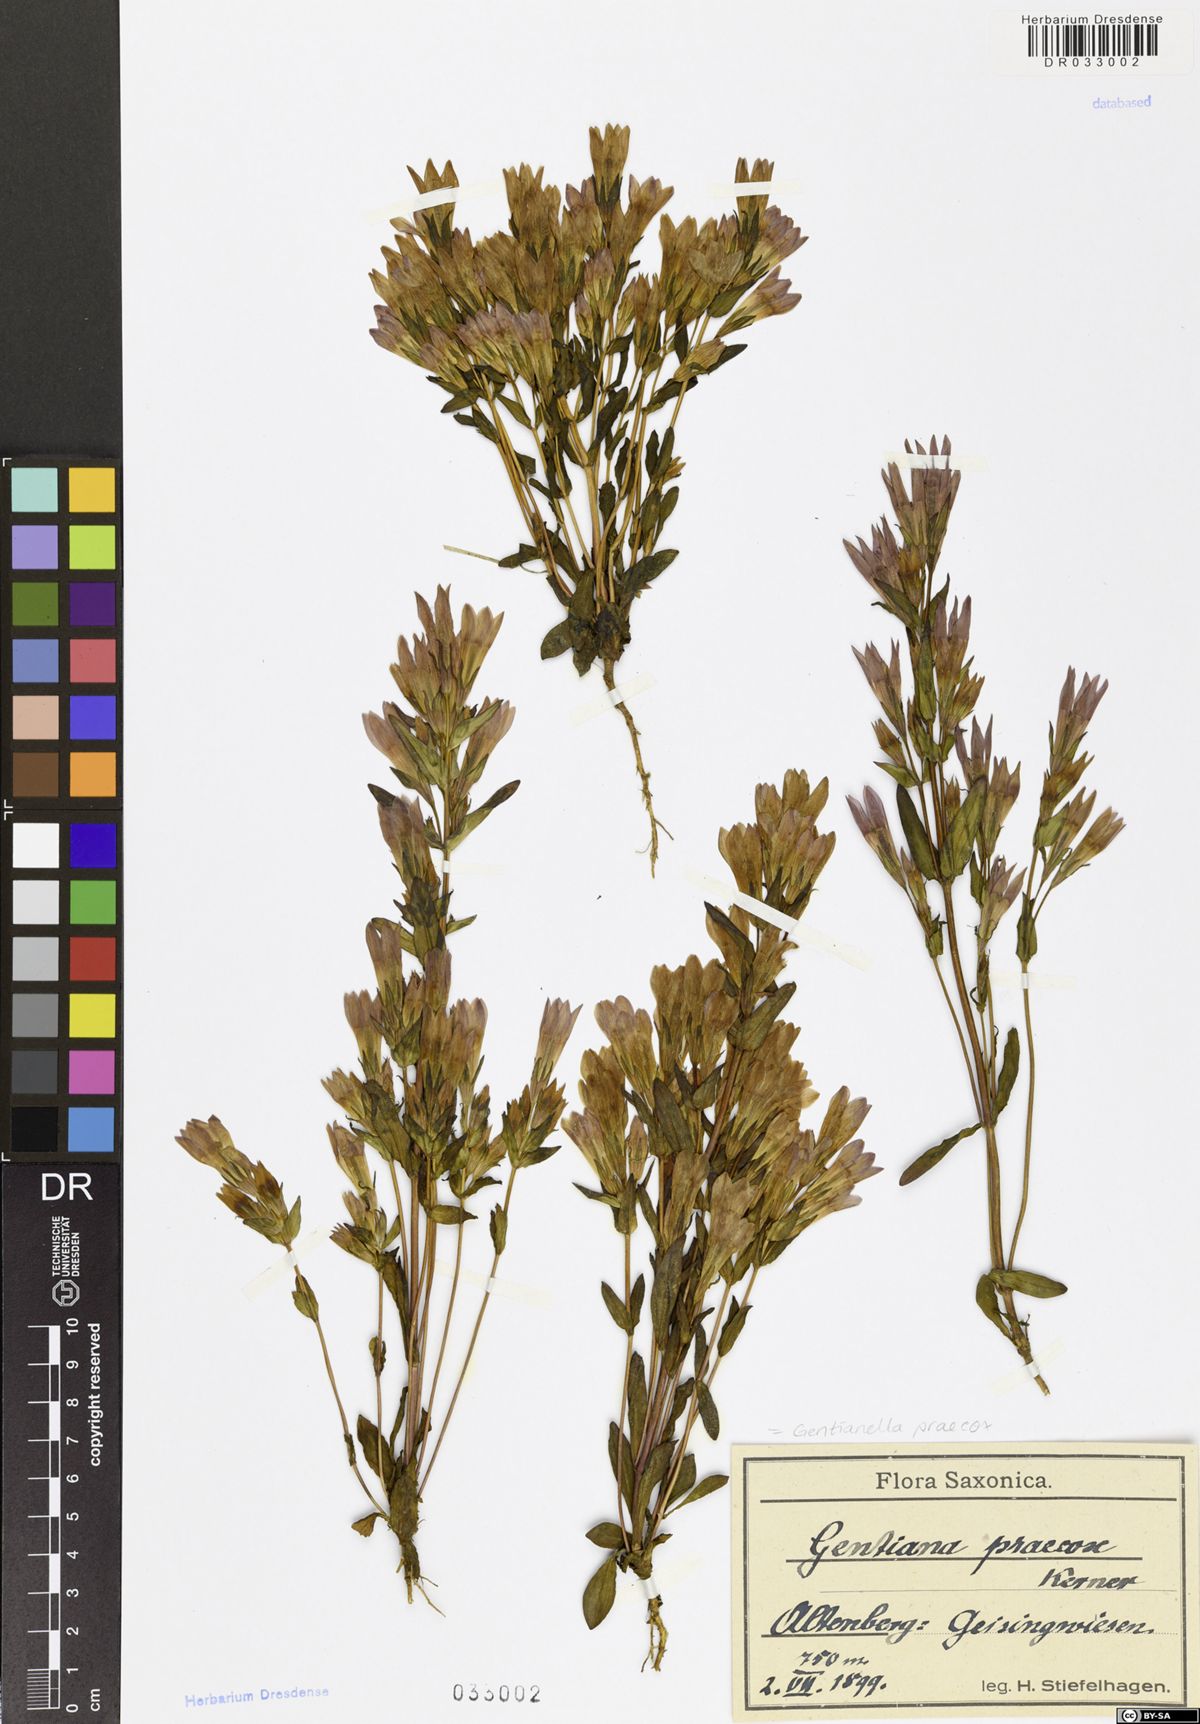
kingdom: Plantae
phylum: Tracheophyta
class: Magnoliopsida
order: Gentianales
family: Gentianaceae
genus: Gentianella
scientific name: Gentianella praecox
